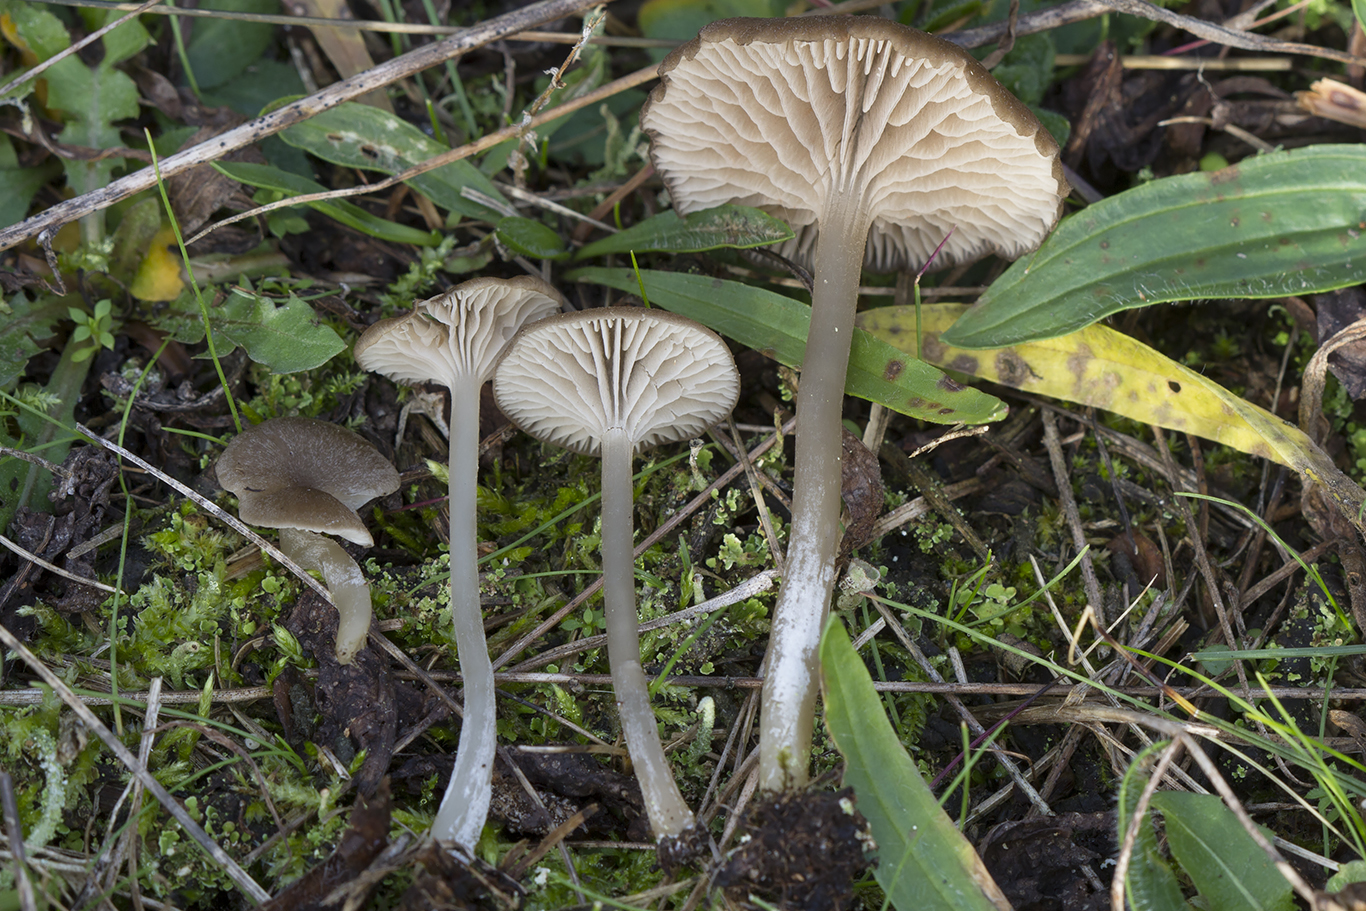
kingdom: Fungi
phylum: Basidiomycota
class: Agaricomycetes
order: Agaricales
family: Entolomataceae
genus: Entoloma
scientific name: Entoloma allospermum
